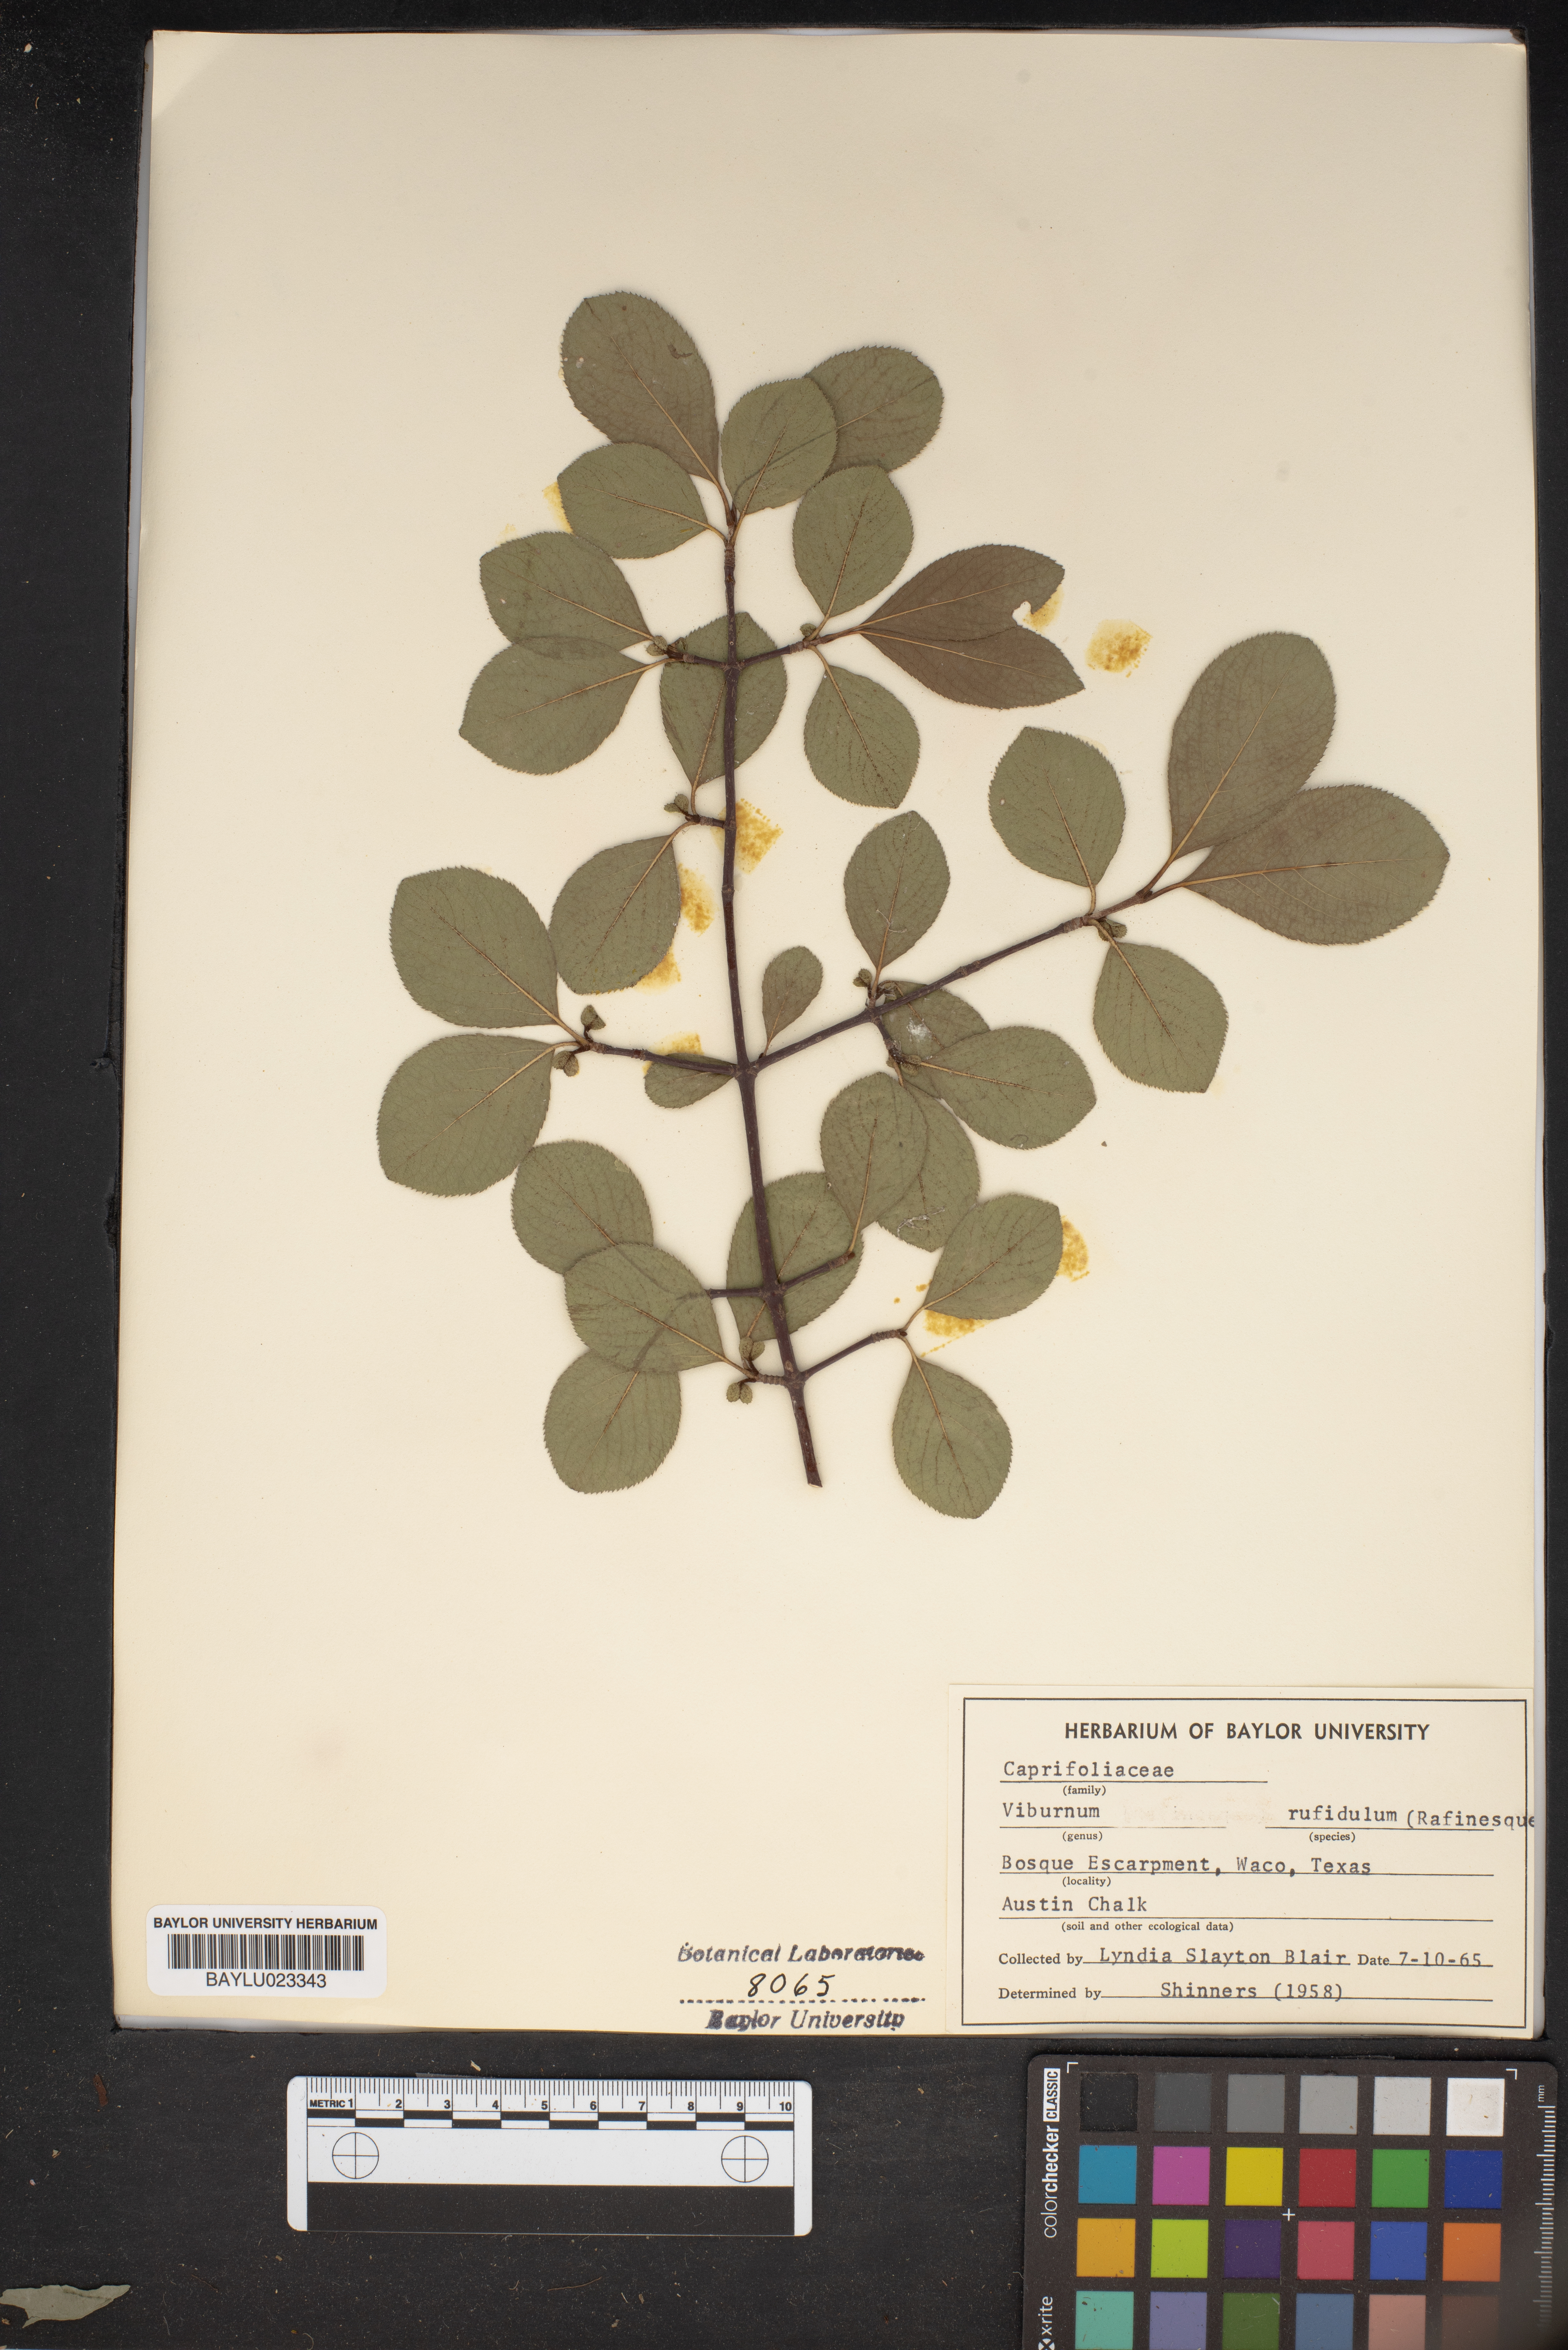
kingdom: Plantae
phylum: Tracheophyta
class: Magnoliopsida
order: Dipsacales
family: Viburnaceae
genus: Viburnum
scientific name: Viburnum rufidulum
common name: Blue haw
